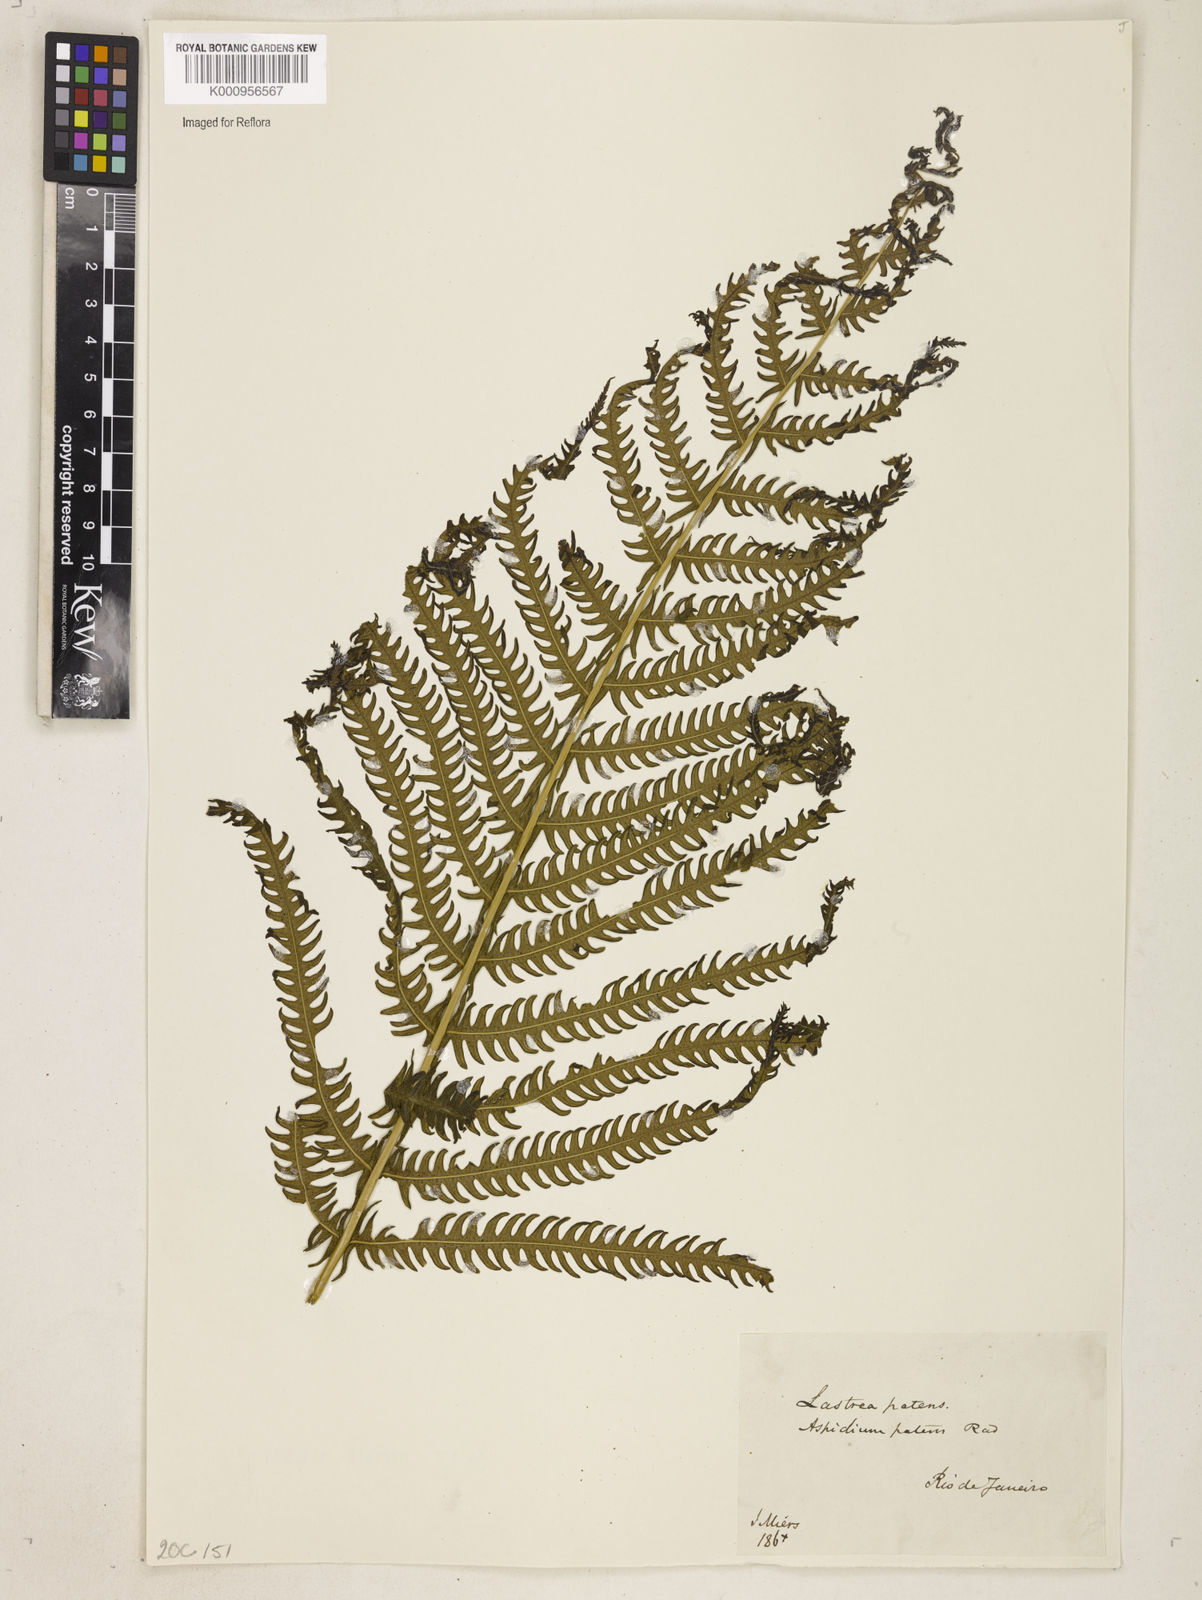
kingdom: Plantae
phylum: Tracheophyta
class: Polypodiopsida
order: Polypodiales
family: Thelypteridaceae
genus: Pelazoneuron
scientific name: Pelazoneuron patens
